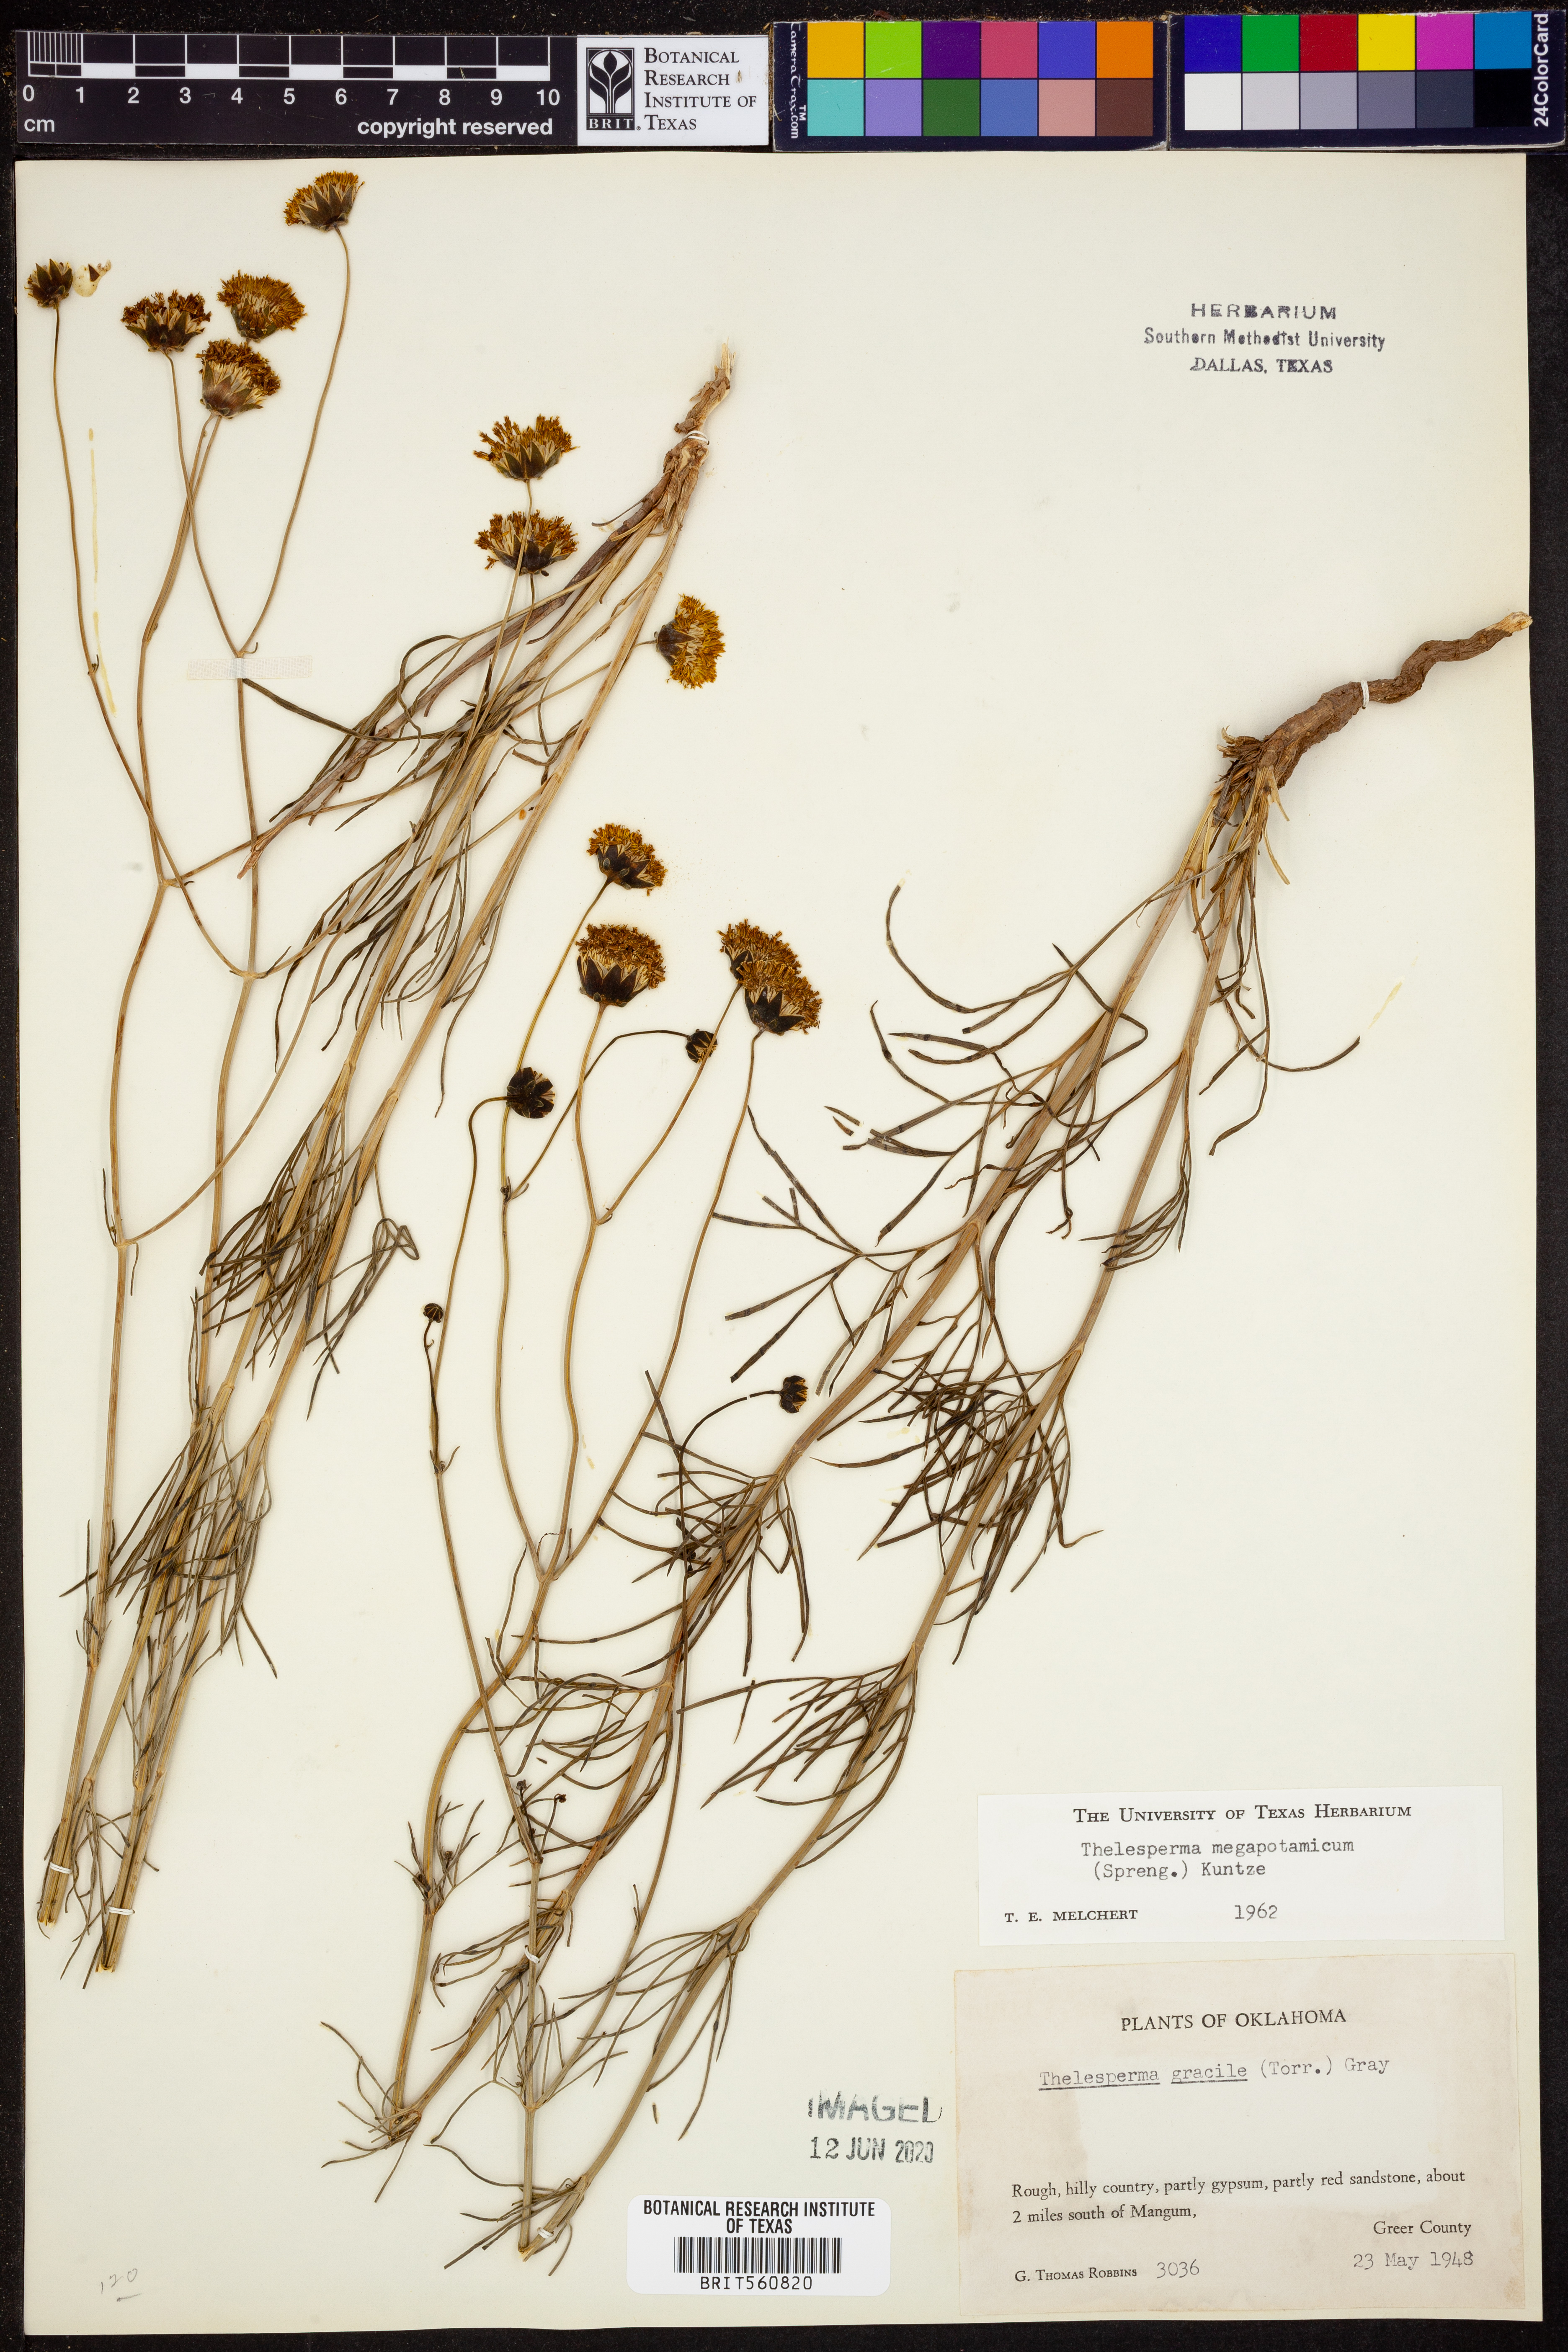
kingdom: Plantae
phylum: Tracheophyta
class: Magnoliopsida
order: Asterales
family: Asteraceae
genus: Thelesperma
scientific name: Thelesperma megapotamicum
